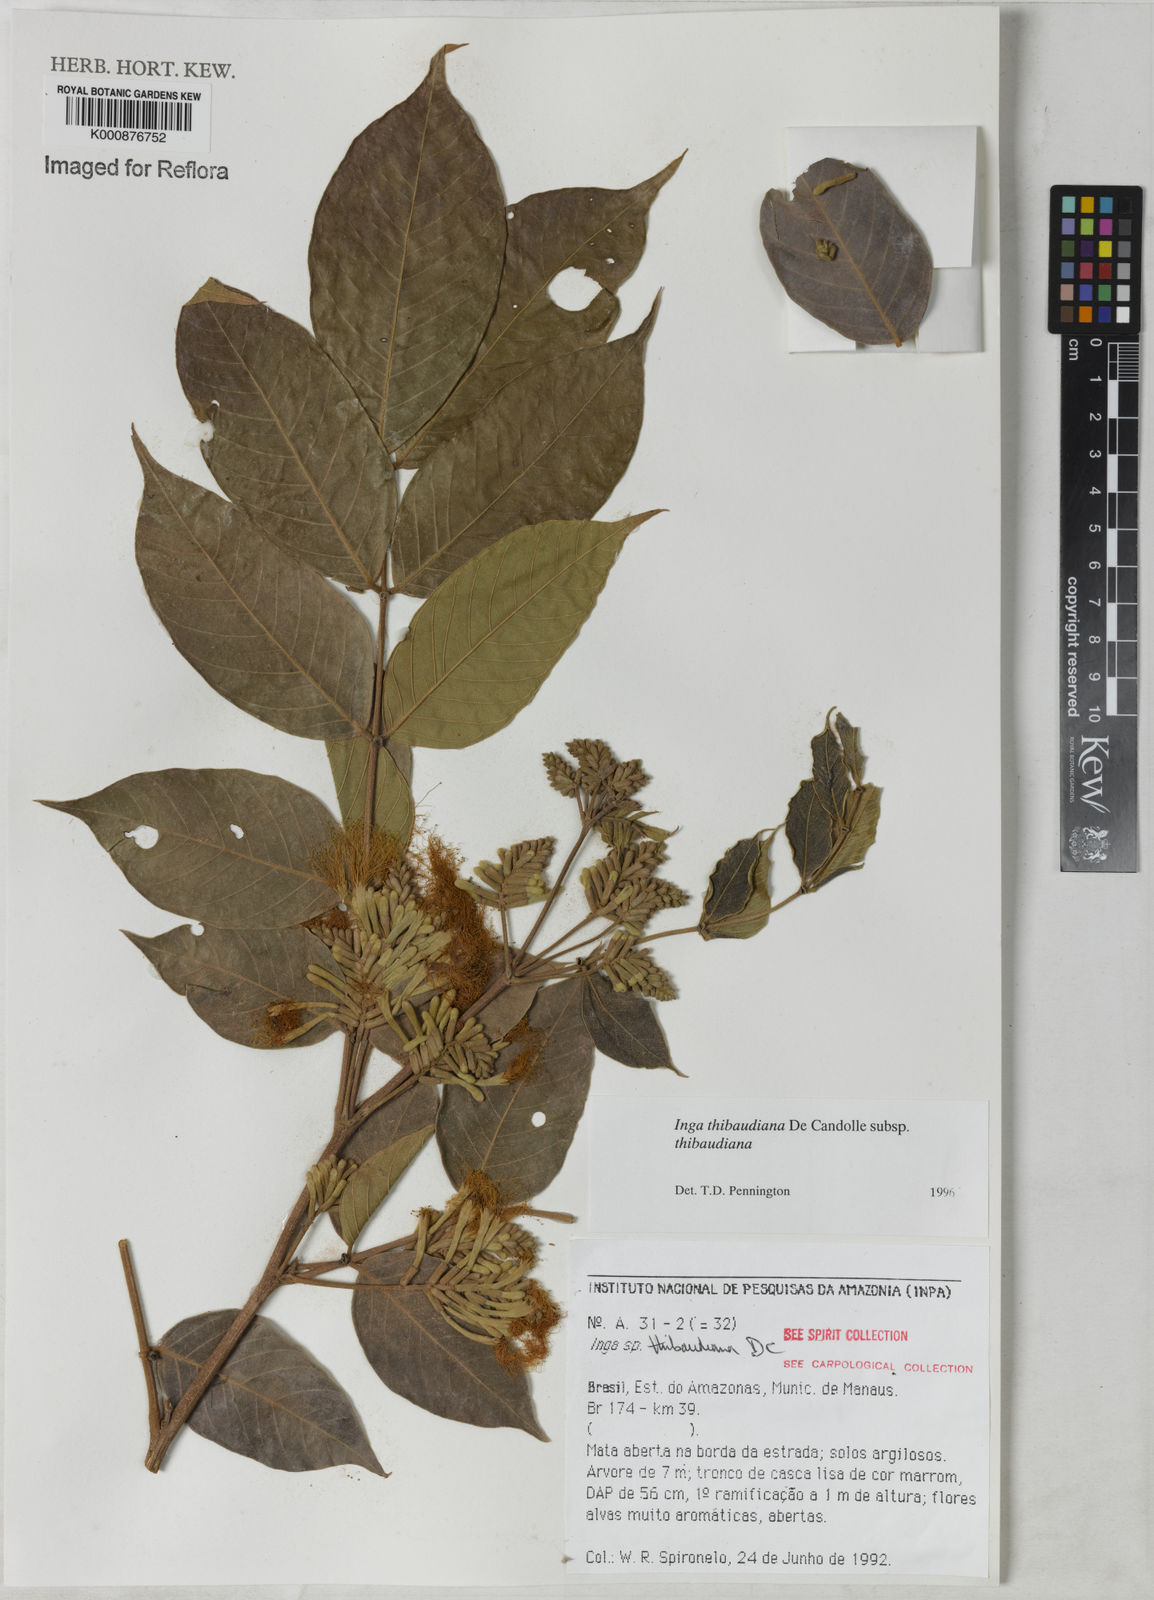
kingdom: Plantae
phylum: Tracheophyta
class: Magnoliopsida
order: Fabales
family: Fabaceae
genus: Inga
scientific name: Inga thibaudiana
